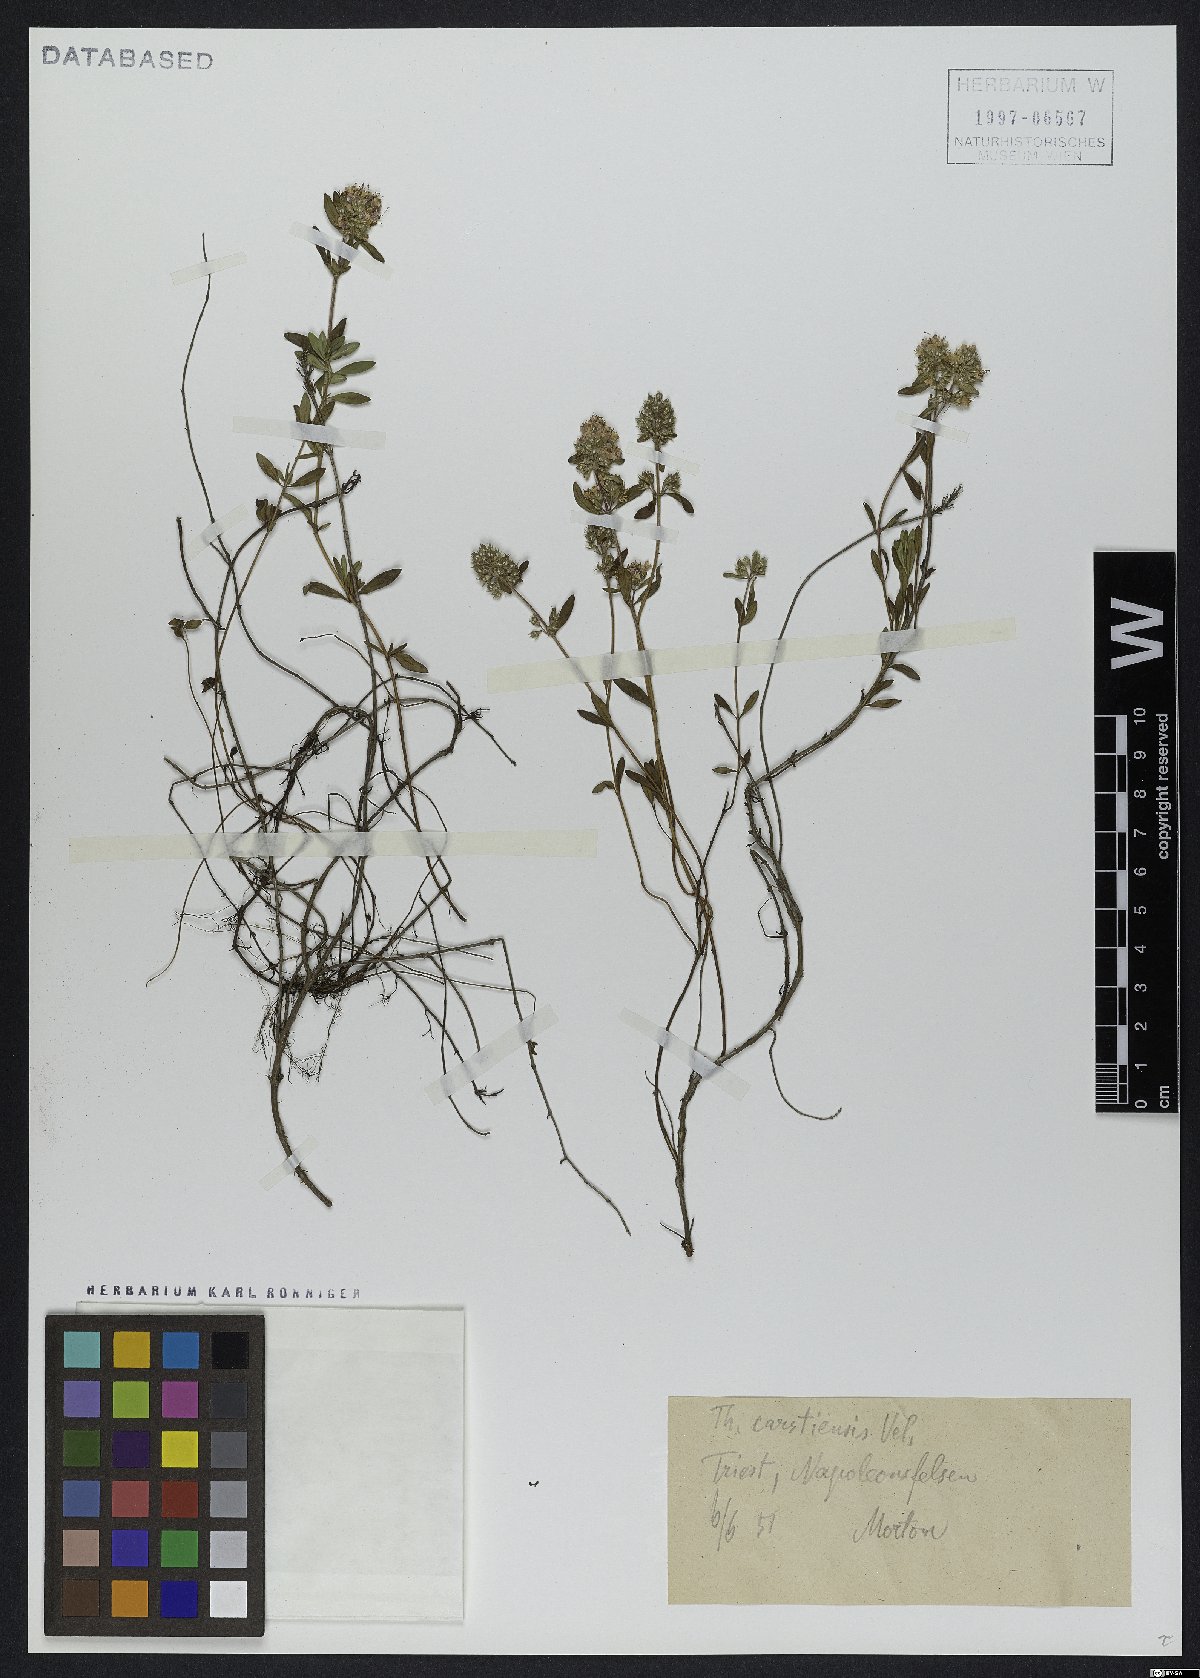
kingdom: Plantae
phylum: Tracheophyta
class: Magnoliopsida
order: Lamiales
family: Lamiaceae
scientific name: Lamiaceae
